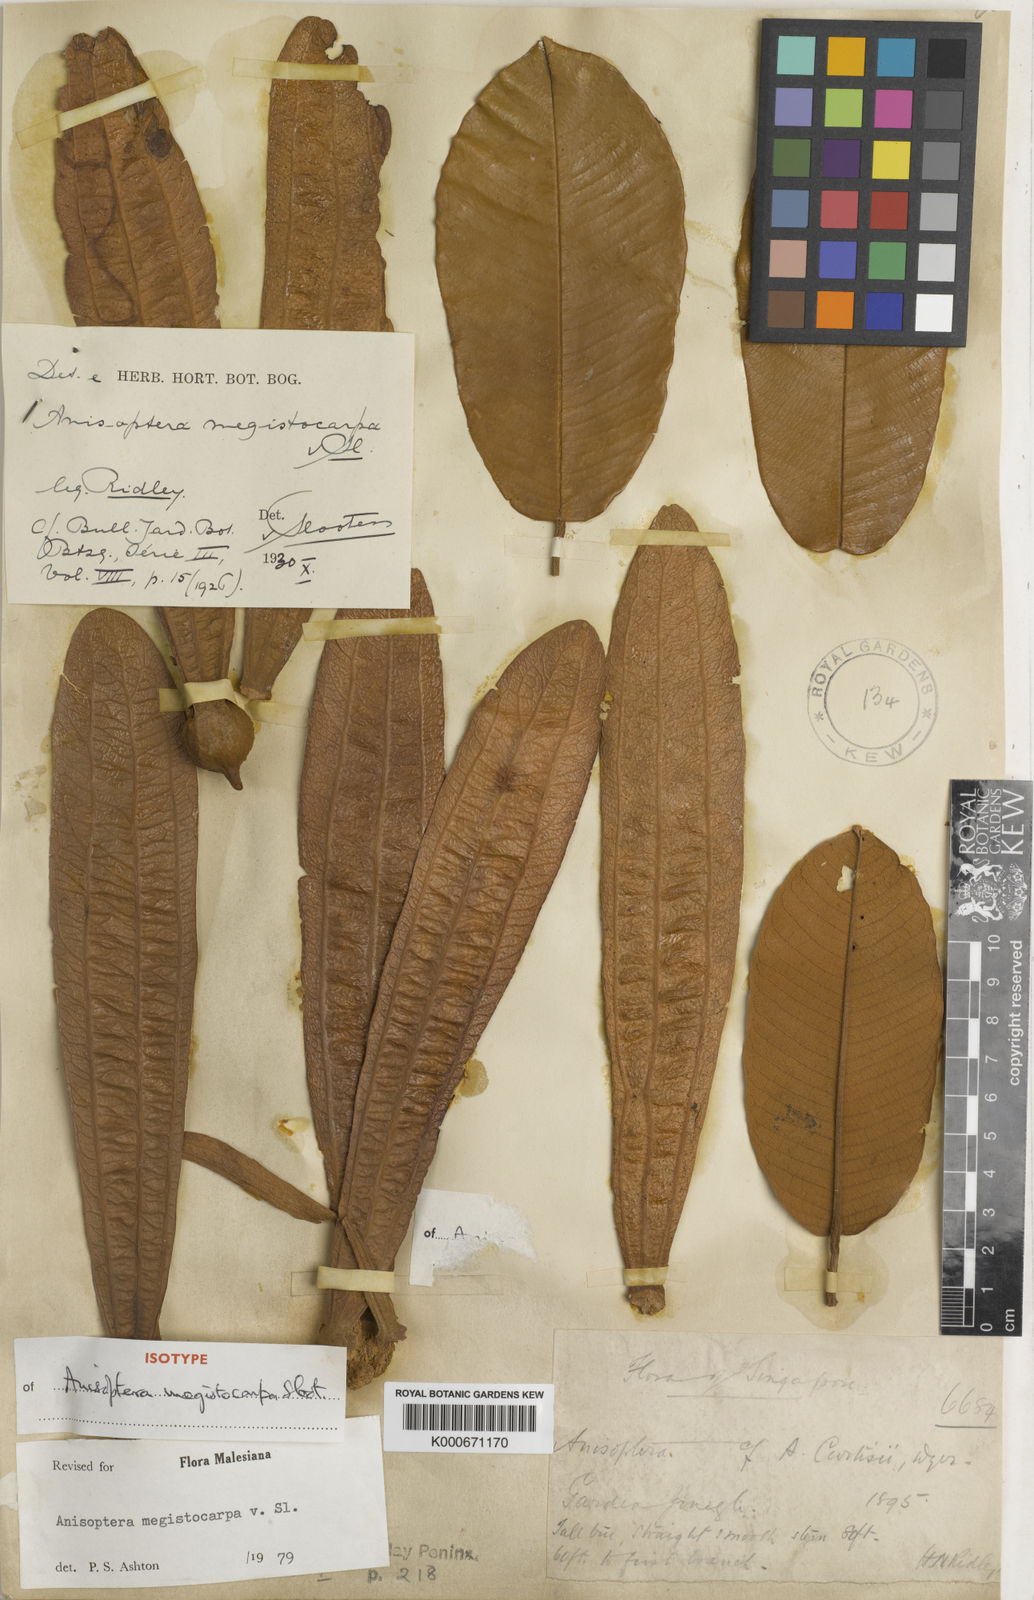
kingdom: Plantae
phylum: Tracheophyta
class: Magnoliopsida
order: Malvales
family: Dipterocarpaceae
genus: Anisoptera
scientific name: Anisoptera megistocarpa
